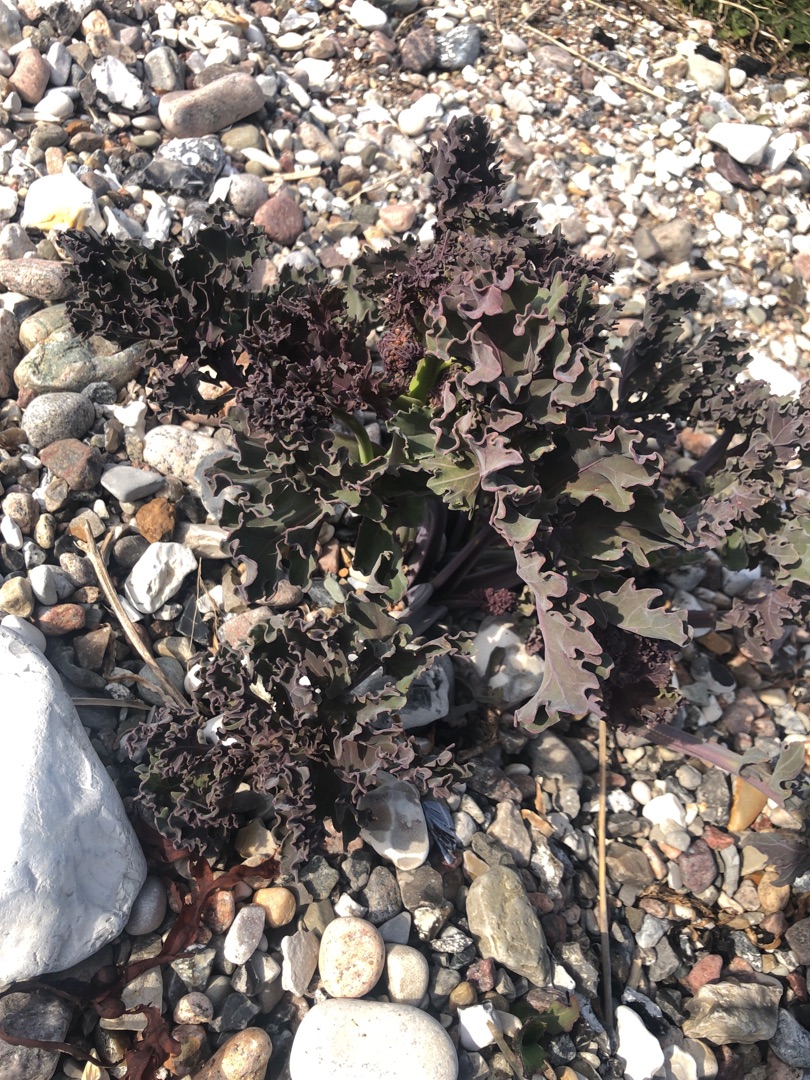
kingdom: Plantae
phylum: Tracheophyta
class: Magnoliopsida
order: Brassicales
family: Brassicaceae
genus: Crambe
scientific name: Crambe maritima
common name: Strandkål
